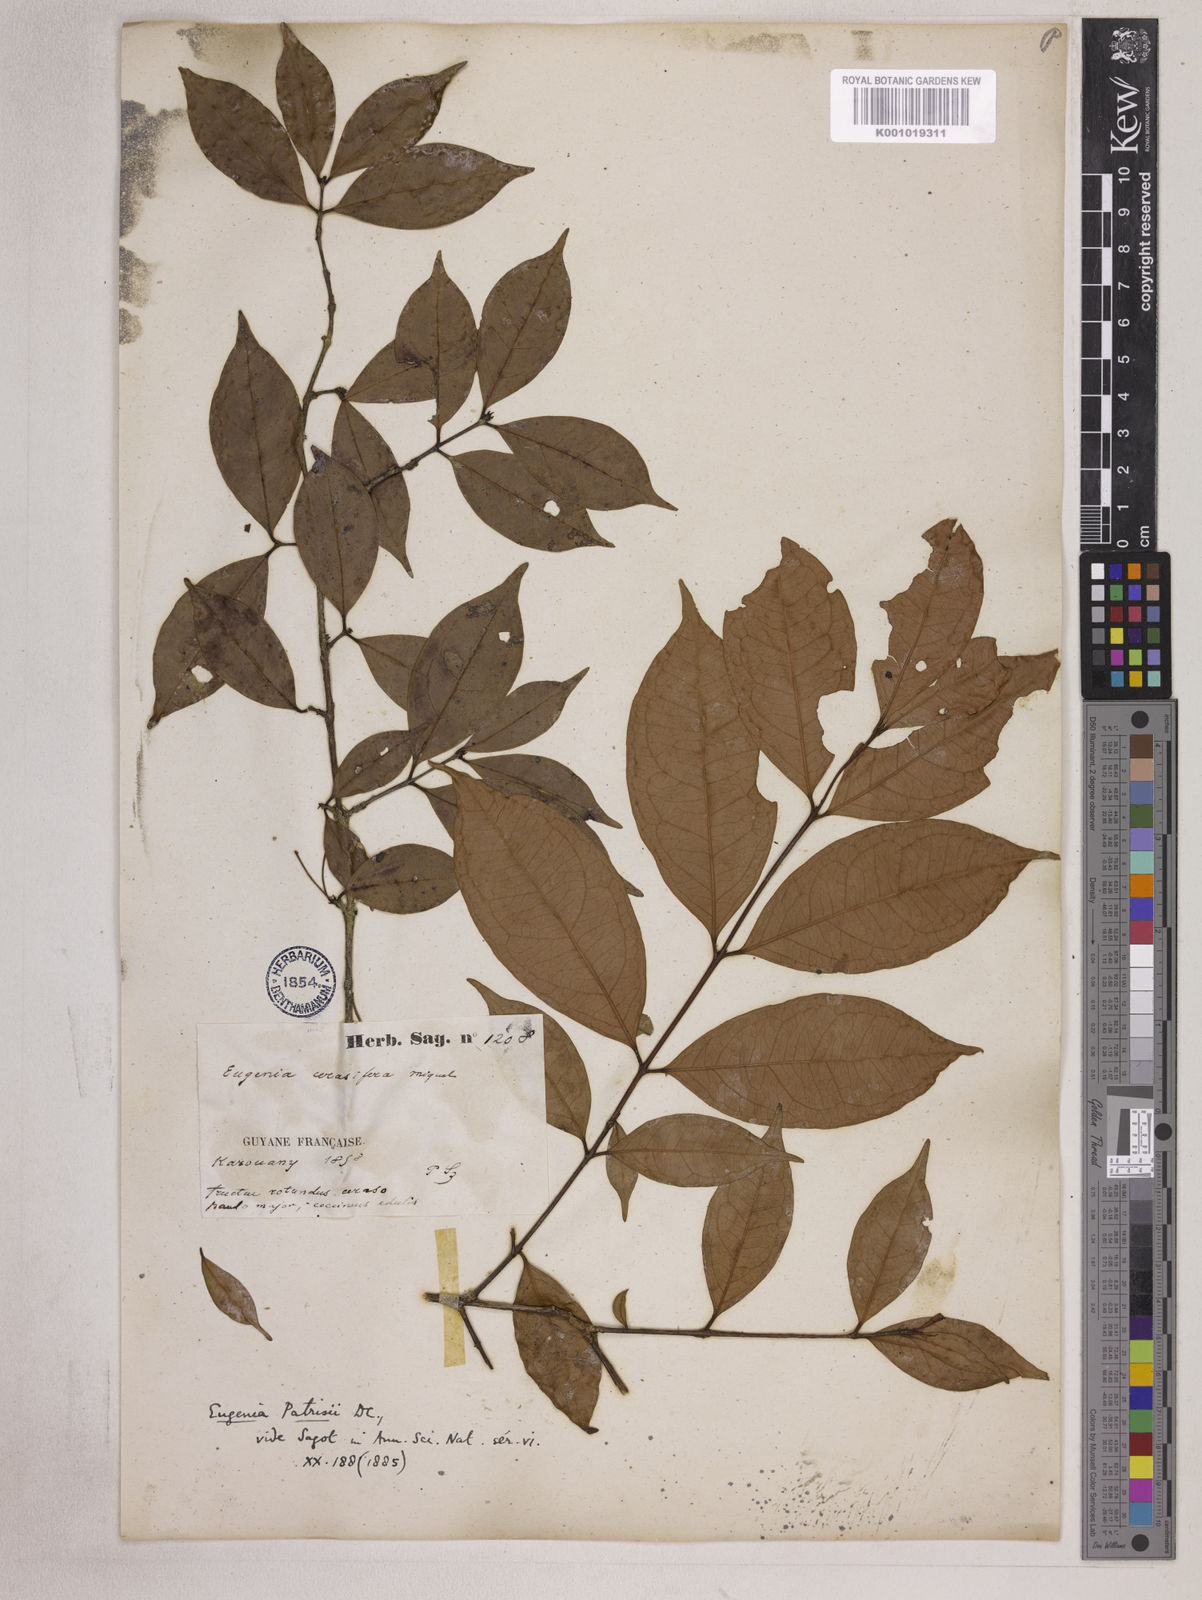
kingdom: Plantae
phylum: Tracheophyta
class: Magnoliopsida
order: Myrtales
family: Myrtaceae
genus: Eugenia
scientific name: Eugenia patrisii
